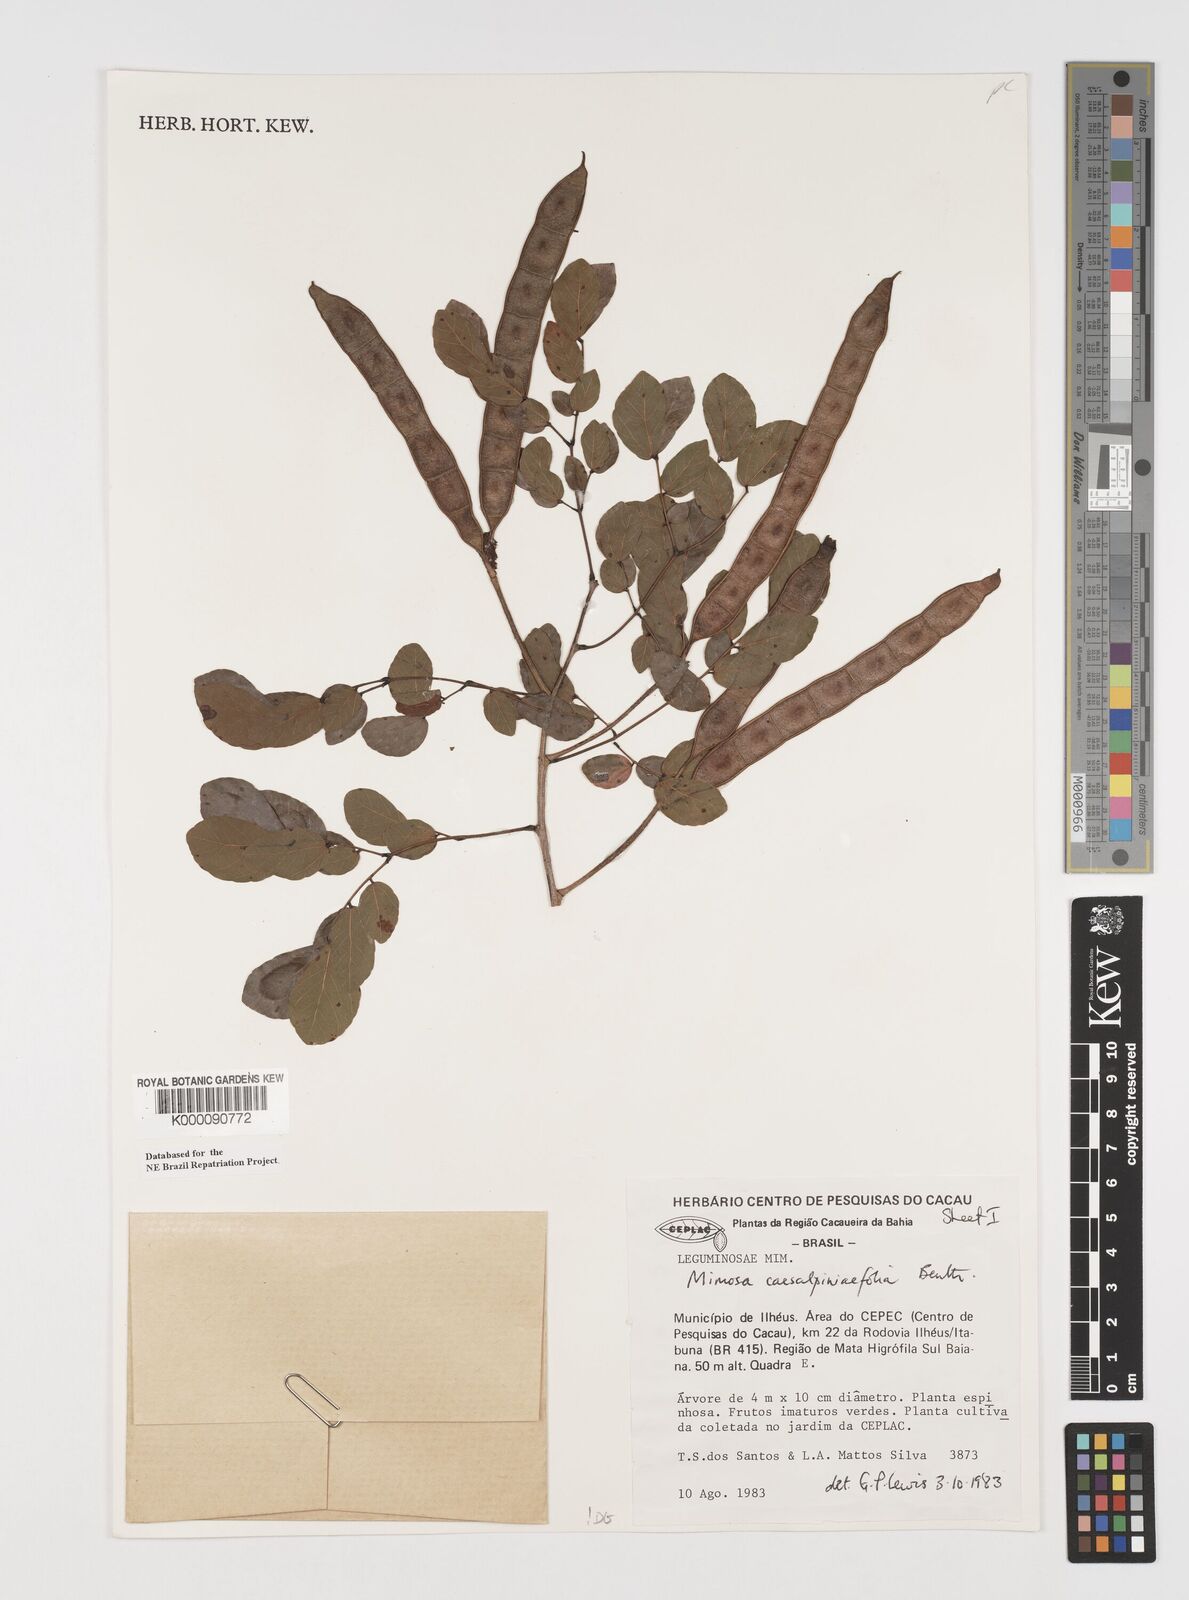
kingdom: Plantae
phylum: Tracheophyta
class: Magnoliopsida
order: Fabales
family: Fabaceae
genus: Mimosa
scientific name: Mimosa caesalpiniifolia
